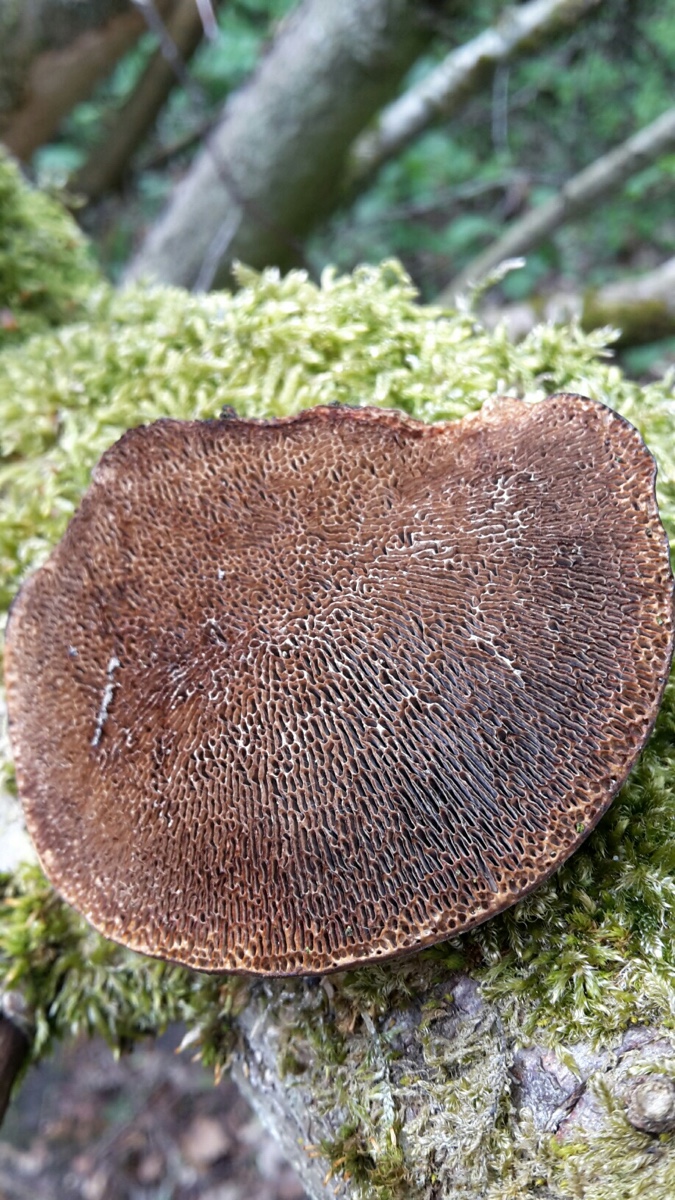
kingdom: Fungi
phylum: Basidiomycota
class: Agaricomycetes
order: Polyporales
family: Polyporaceae
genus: Daedaleopsis
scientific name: Daedaleopsis confragosa
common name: rødmende læderporesvamp
